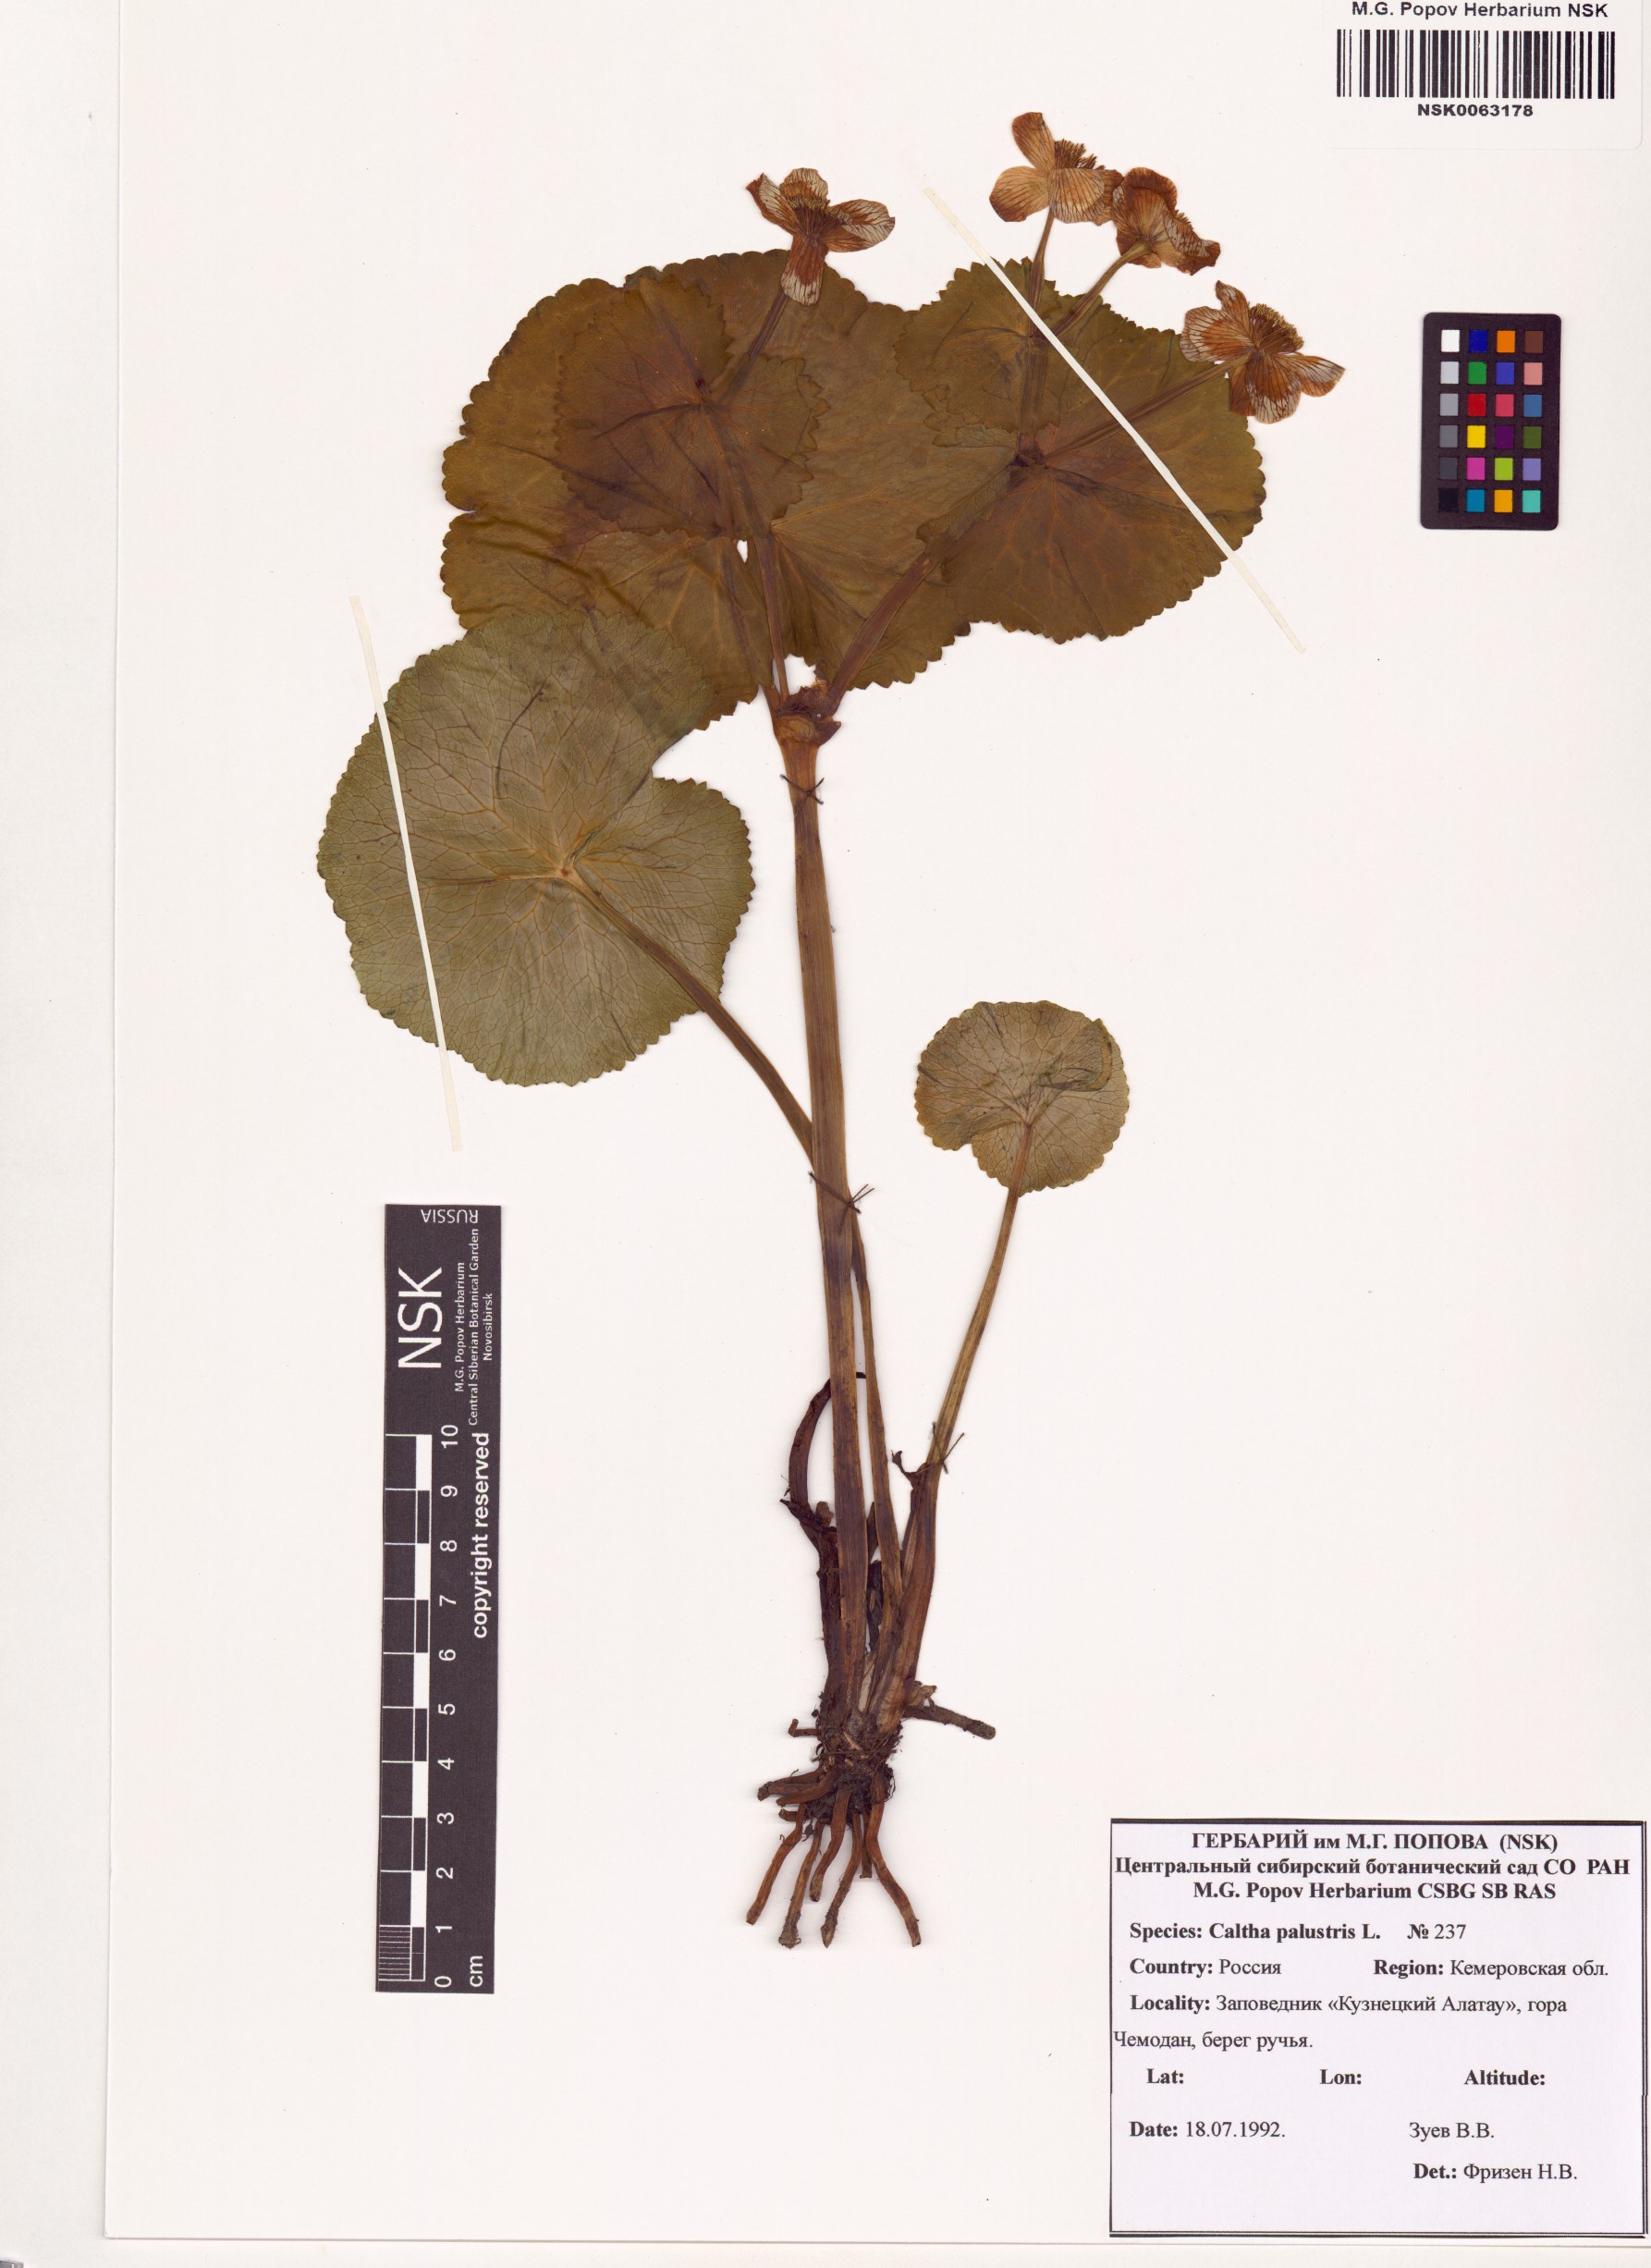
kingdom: Plantae
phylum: Tracheophyta
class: Magnoliopsida
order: Ranunculales
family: Ranunculaceae
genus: Caltha
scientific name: Caltha palustris
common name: Marsh marigold
